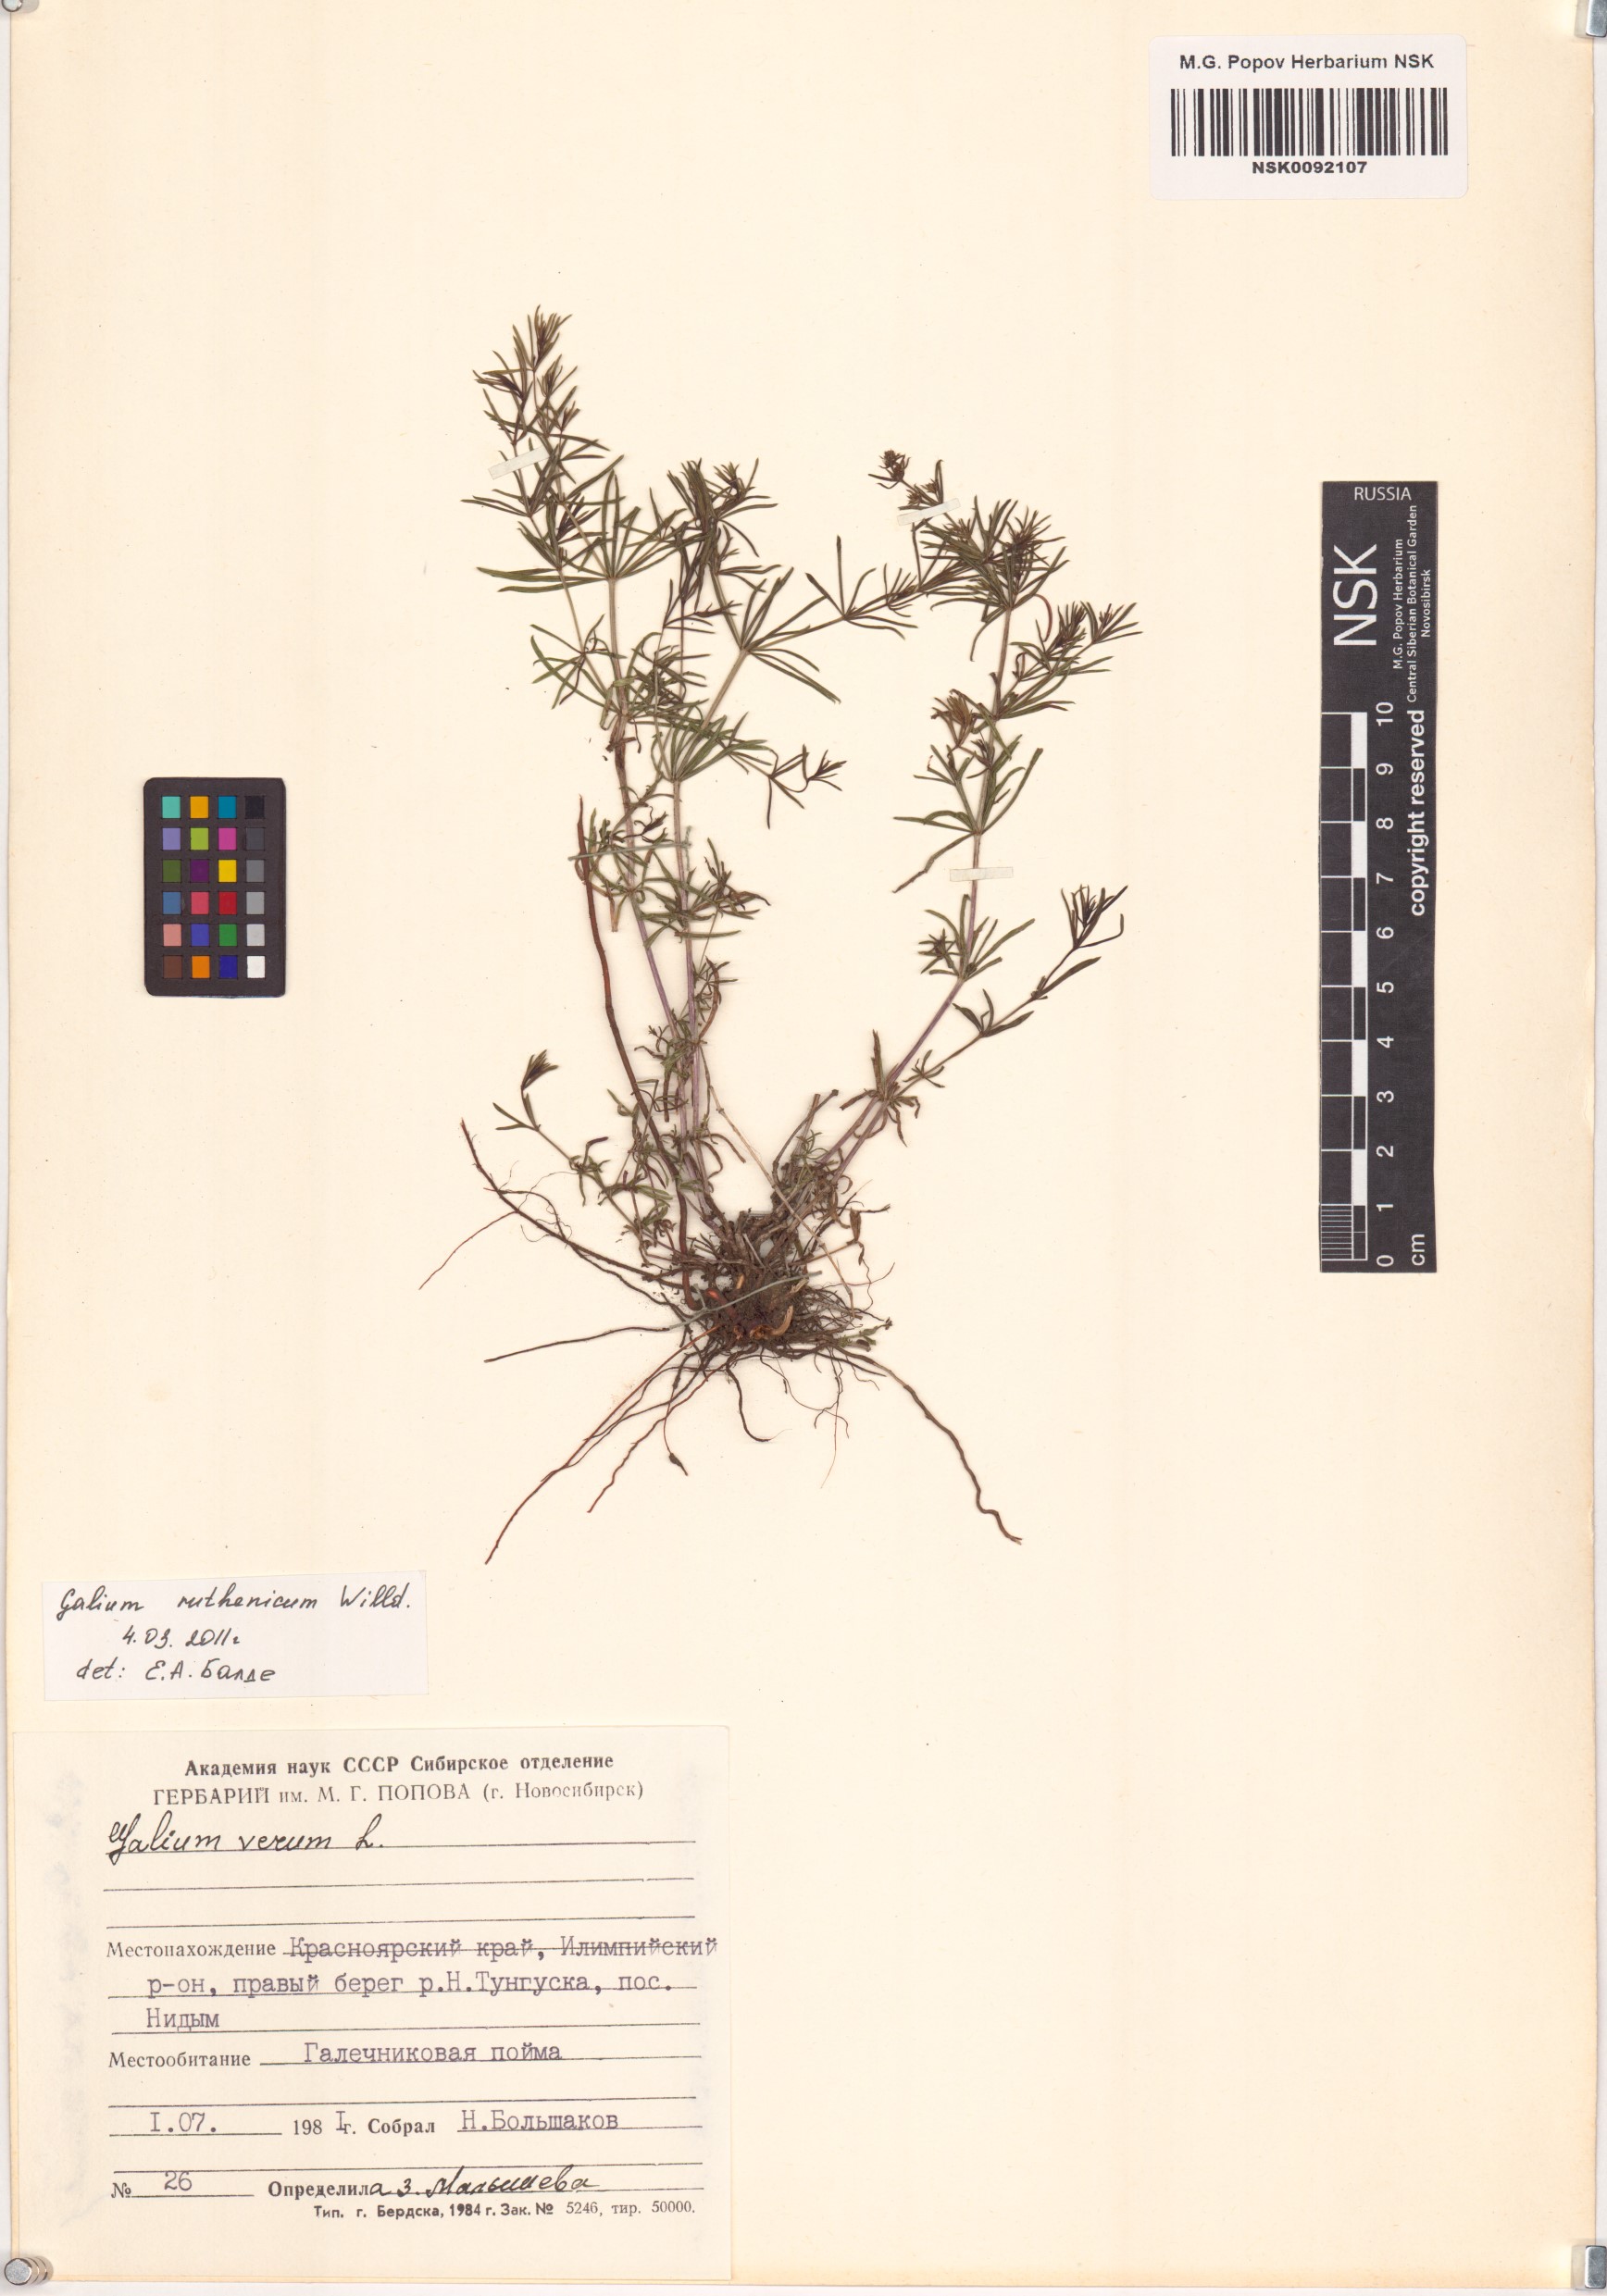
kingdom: Plantae
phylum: Tracheophyta
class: Magnoliopsida
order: Gentianales
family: Rubiaceae
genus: Galium
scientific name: Galium verum
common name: Lady's bedstraw
